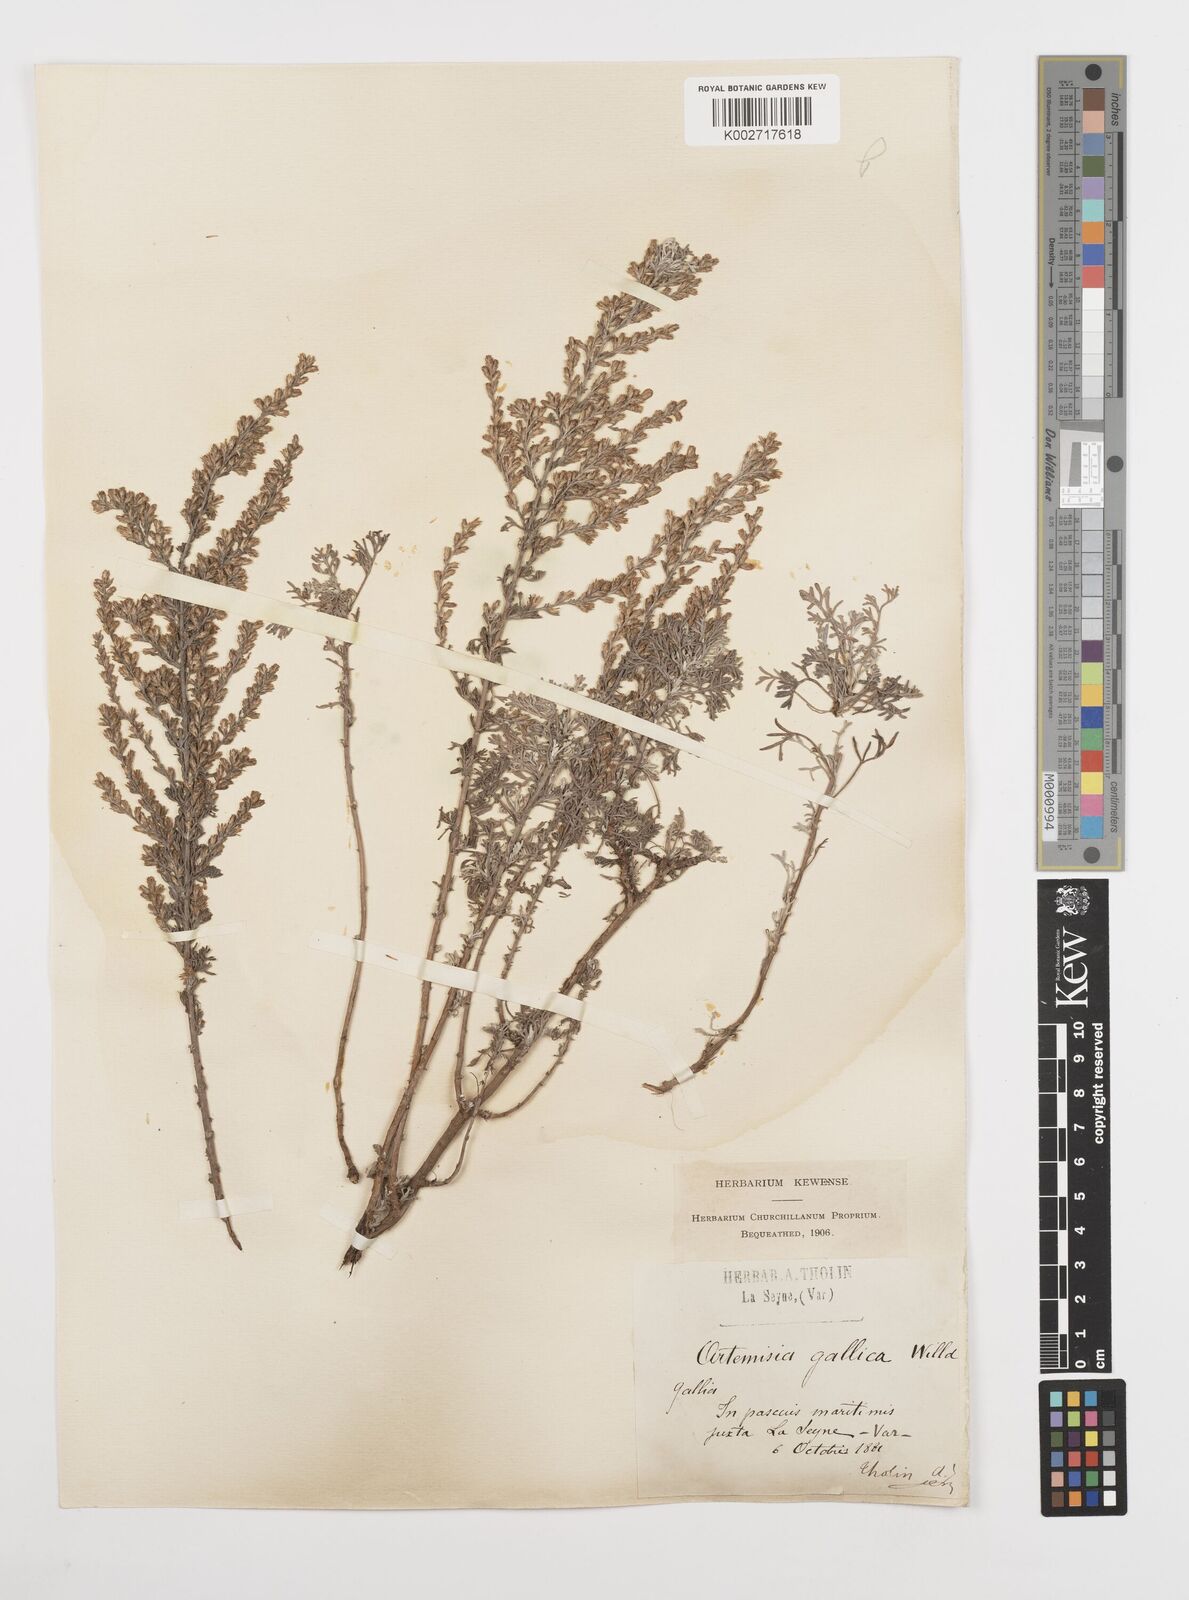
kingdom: Plantae
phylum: Tracheophyta
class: Magnoliopsida
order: Asterales
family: Asteraceae
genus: Artemisia
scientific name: Artemisia campestris
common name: Field wormwood
